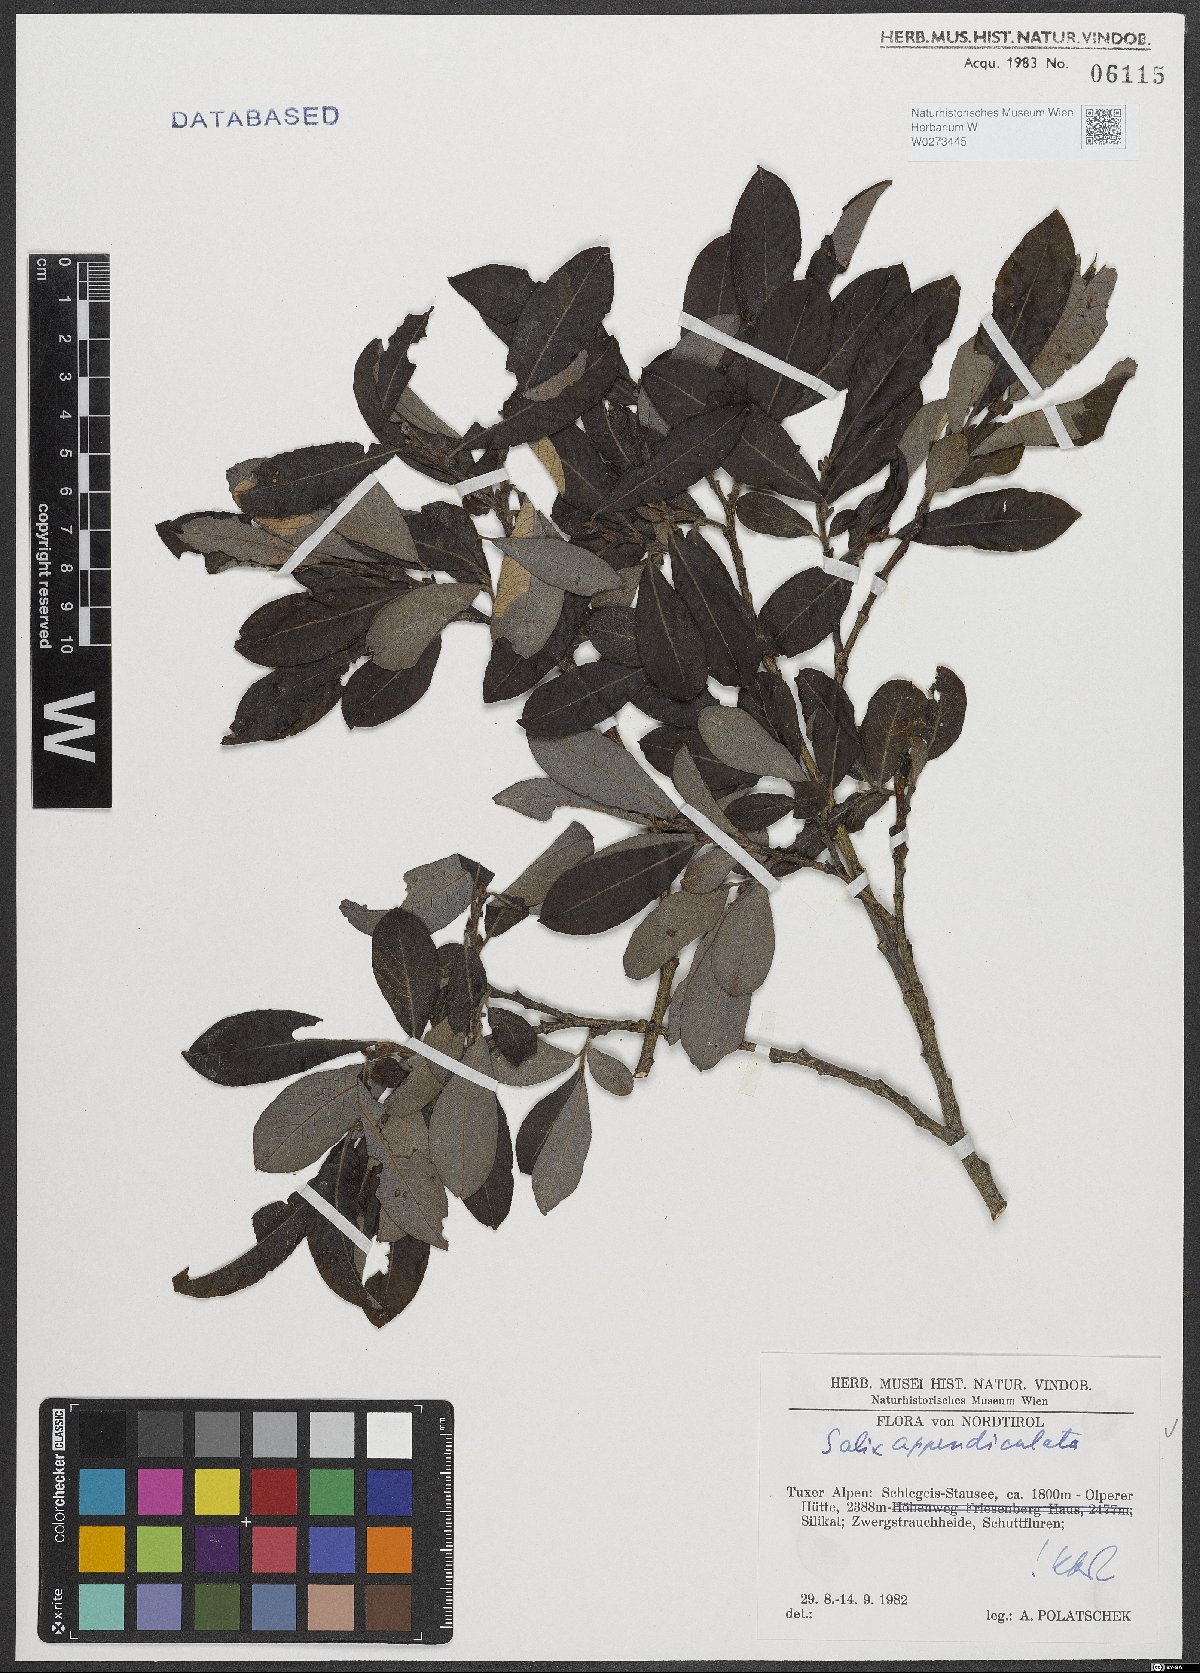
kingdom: Plantae
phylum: Tracheophyta
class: Magnoliopsida
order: Malpighiales
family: Salicaceae
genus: Salix
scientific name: Salix appendiculata
